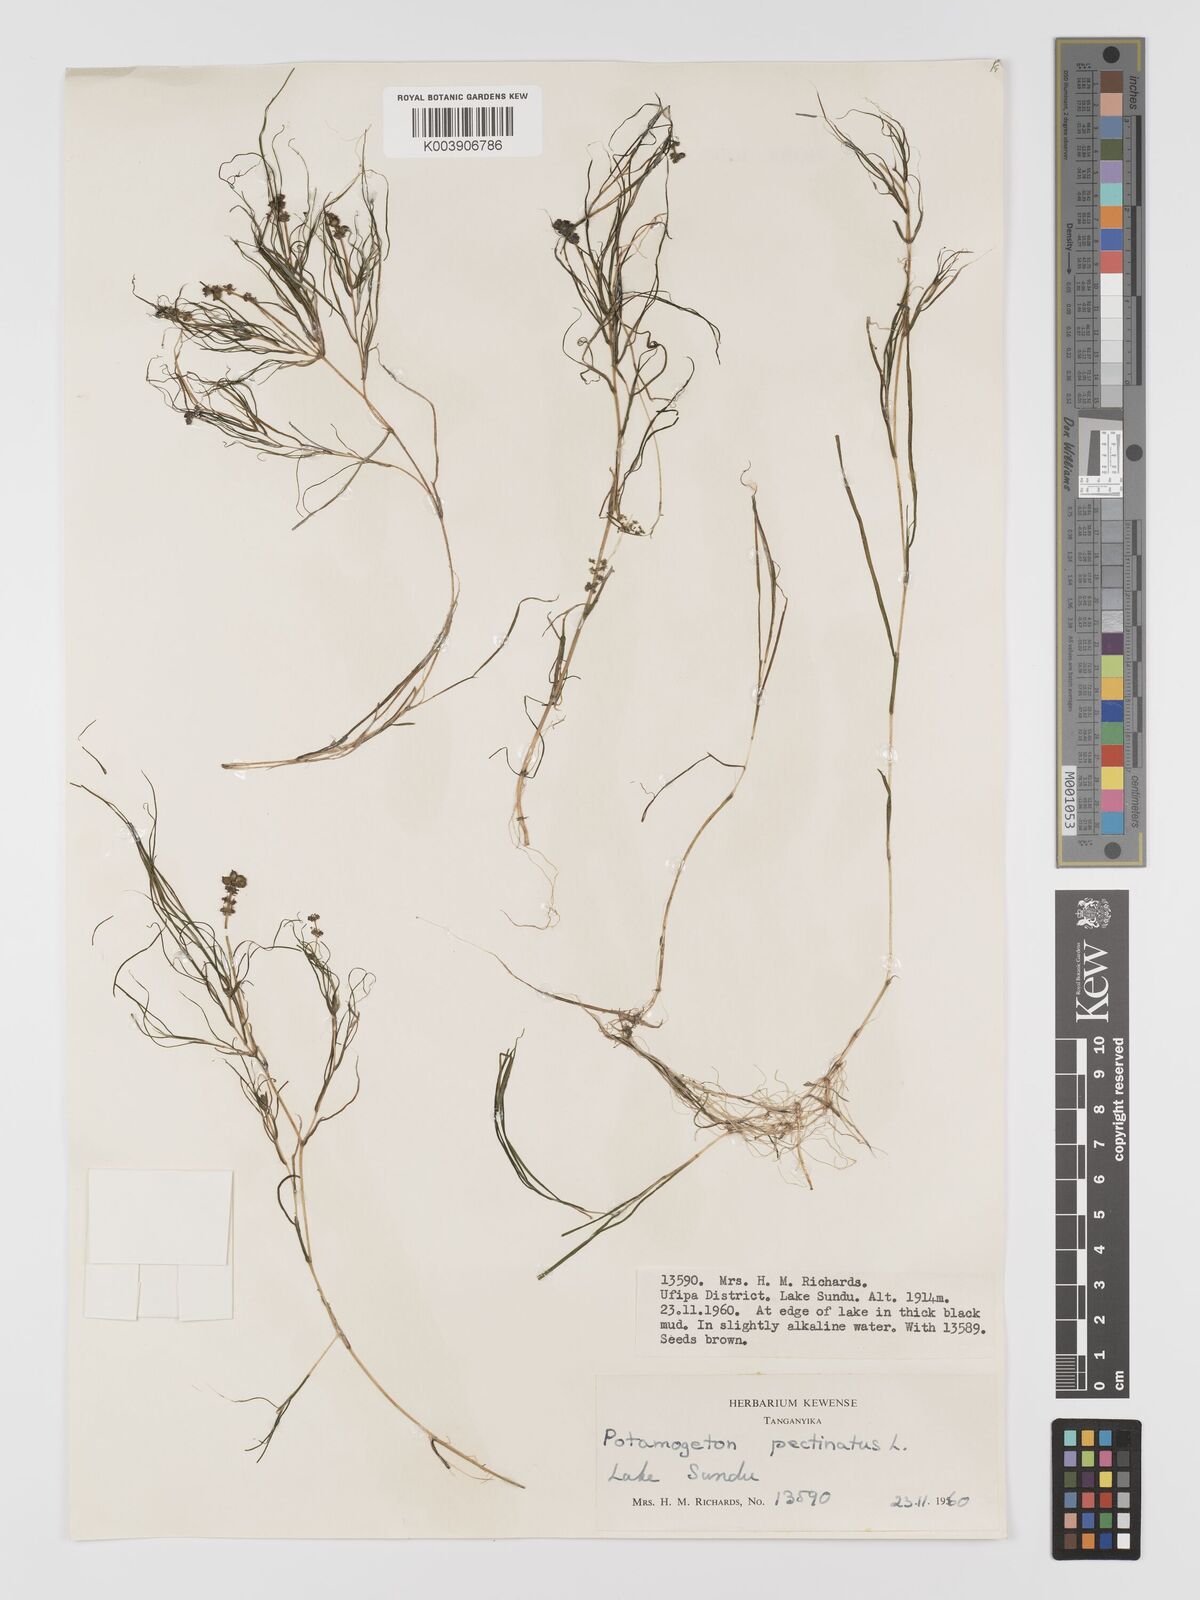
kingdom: Plantae
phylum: Tracheophyta
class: Liliopsida
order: Alismatales
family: Potamogetonaceae
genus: Stuckenia
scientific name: Stuckenia pectinata
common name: Sago pondweed
